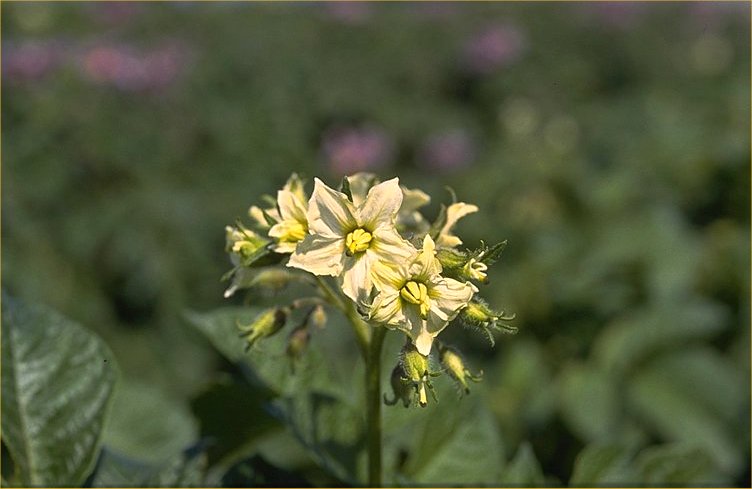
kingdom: Plantae
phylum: Tracheophyta
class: Magnoliopsida
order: Solanales
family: Solanaceae
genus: Solanum
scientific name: Solanum tuberosum
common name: Potato
